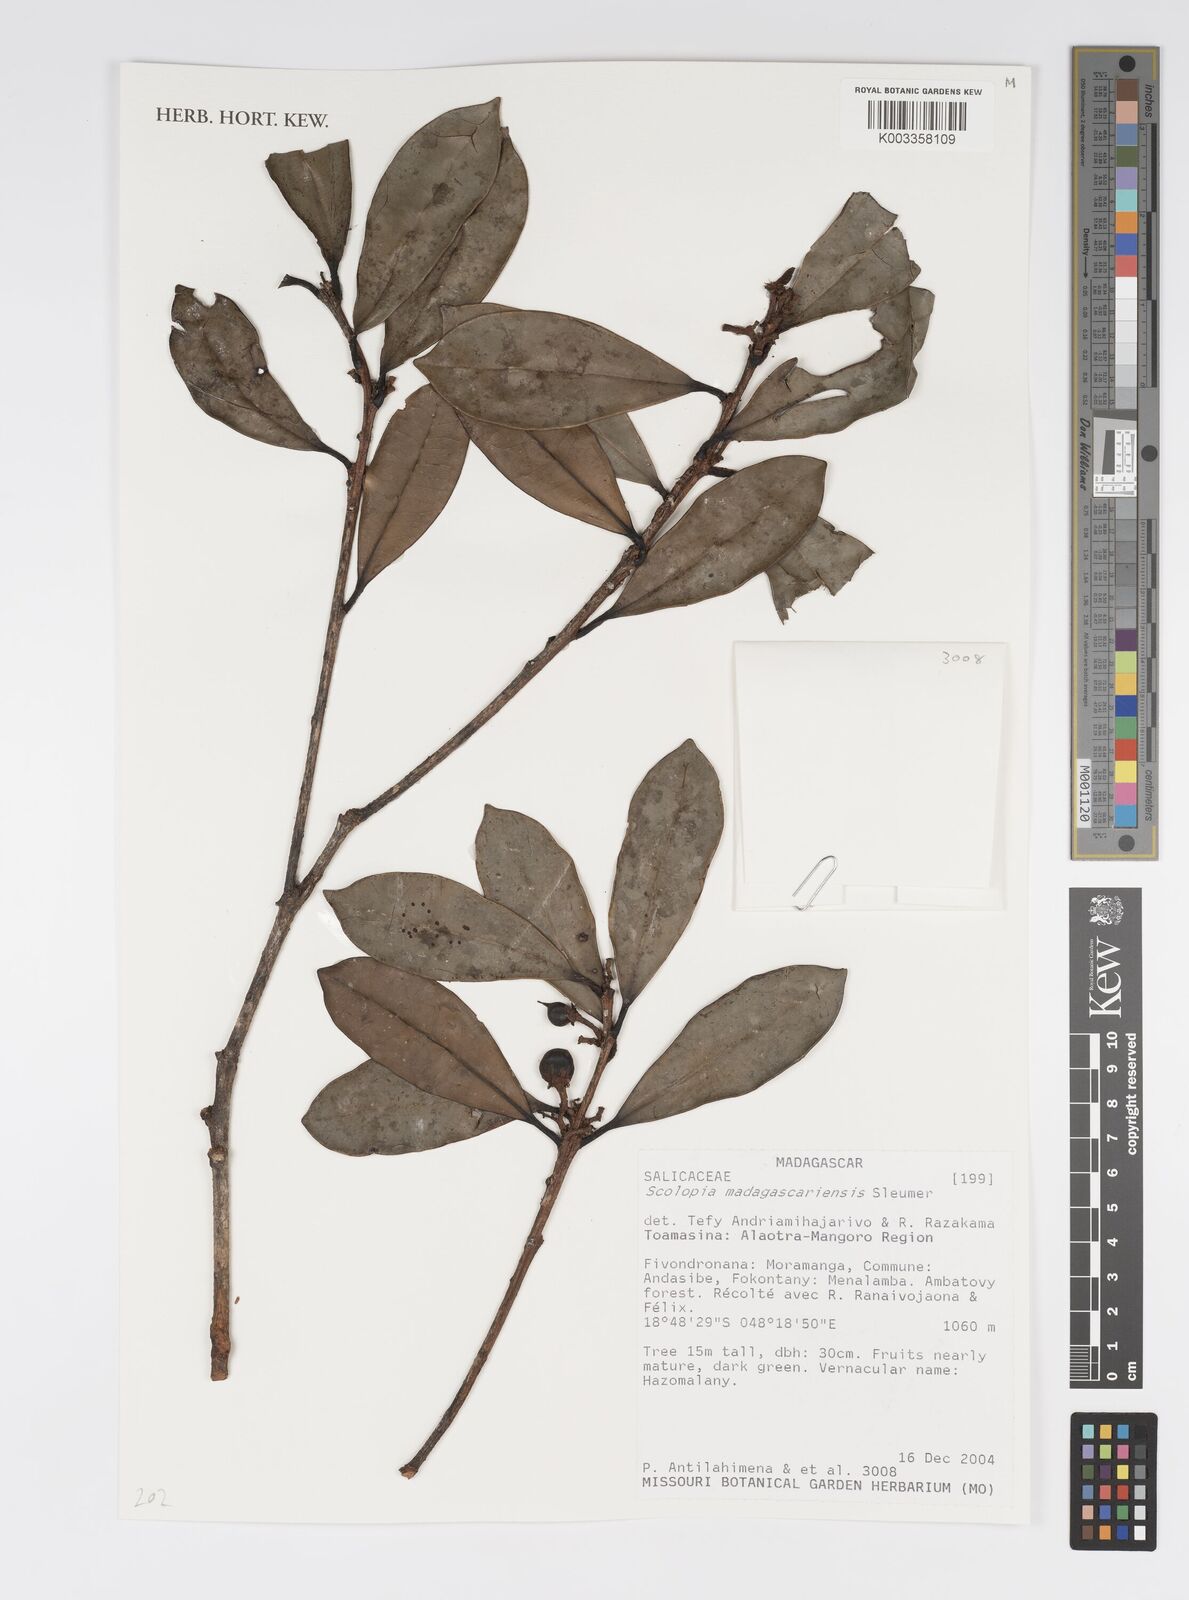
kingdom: Plantae
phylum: Tracheophyta
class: Magnoliopsida
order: Malpighiales
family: Salicaceae
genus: Scolopia
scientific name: Scolopia madagascariensis
